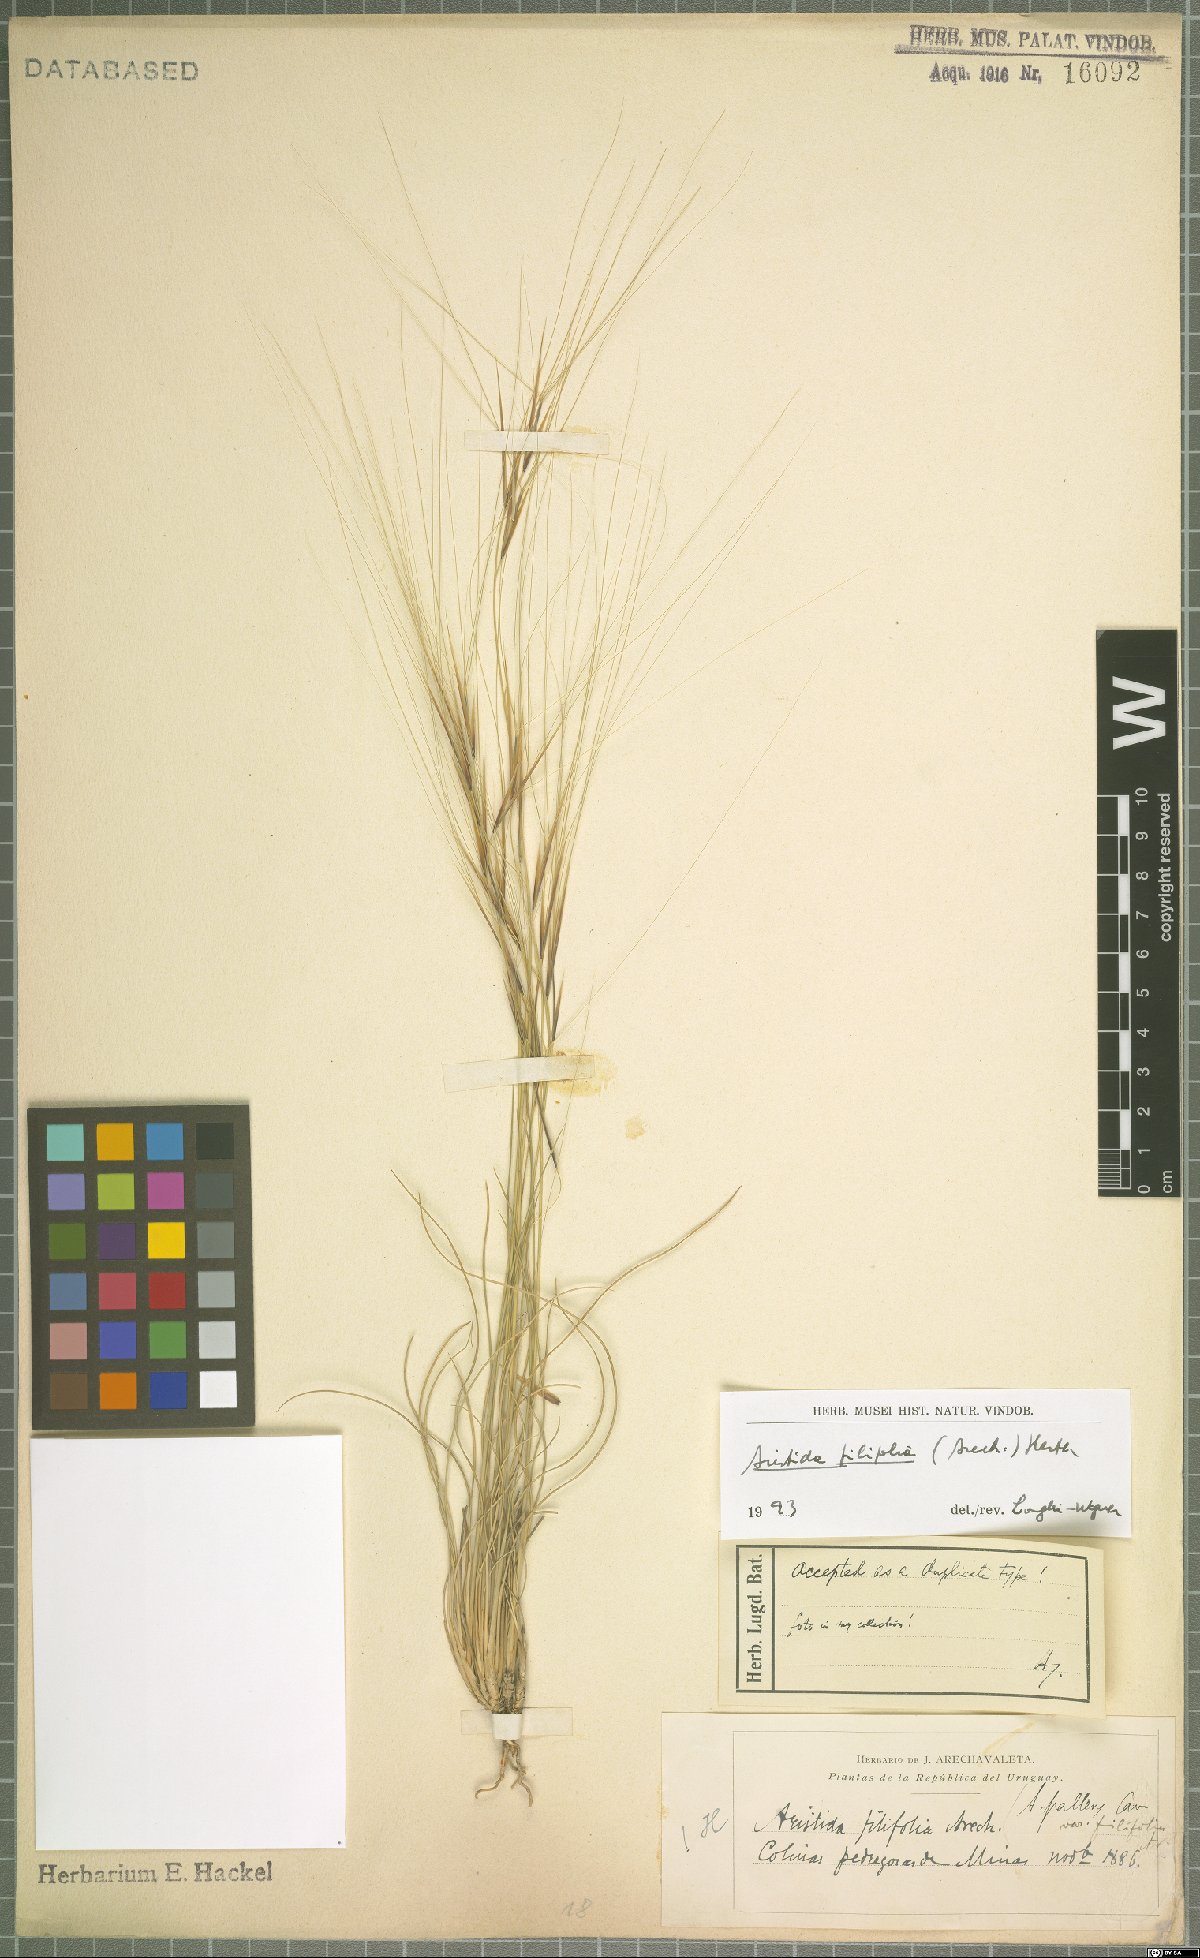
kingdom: Plantae
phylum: Tracheophyta
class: Liliopsida
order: Poales
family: Poaceae
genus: Aristida
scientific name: Aristida filifolia
